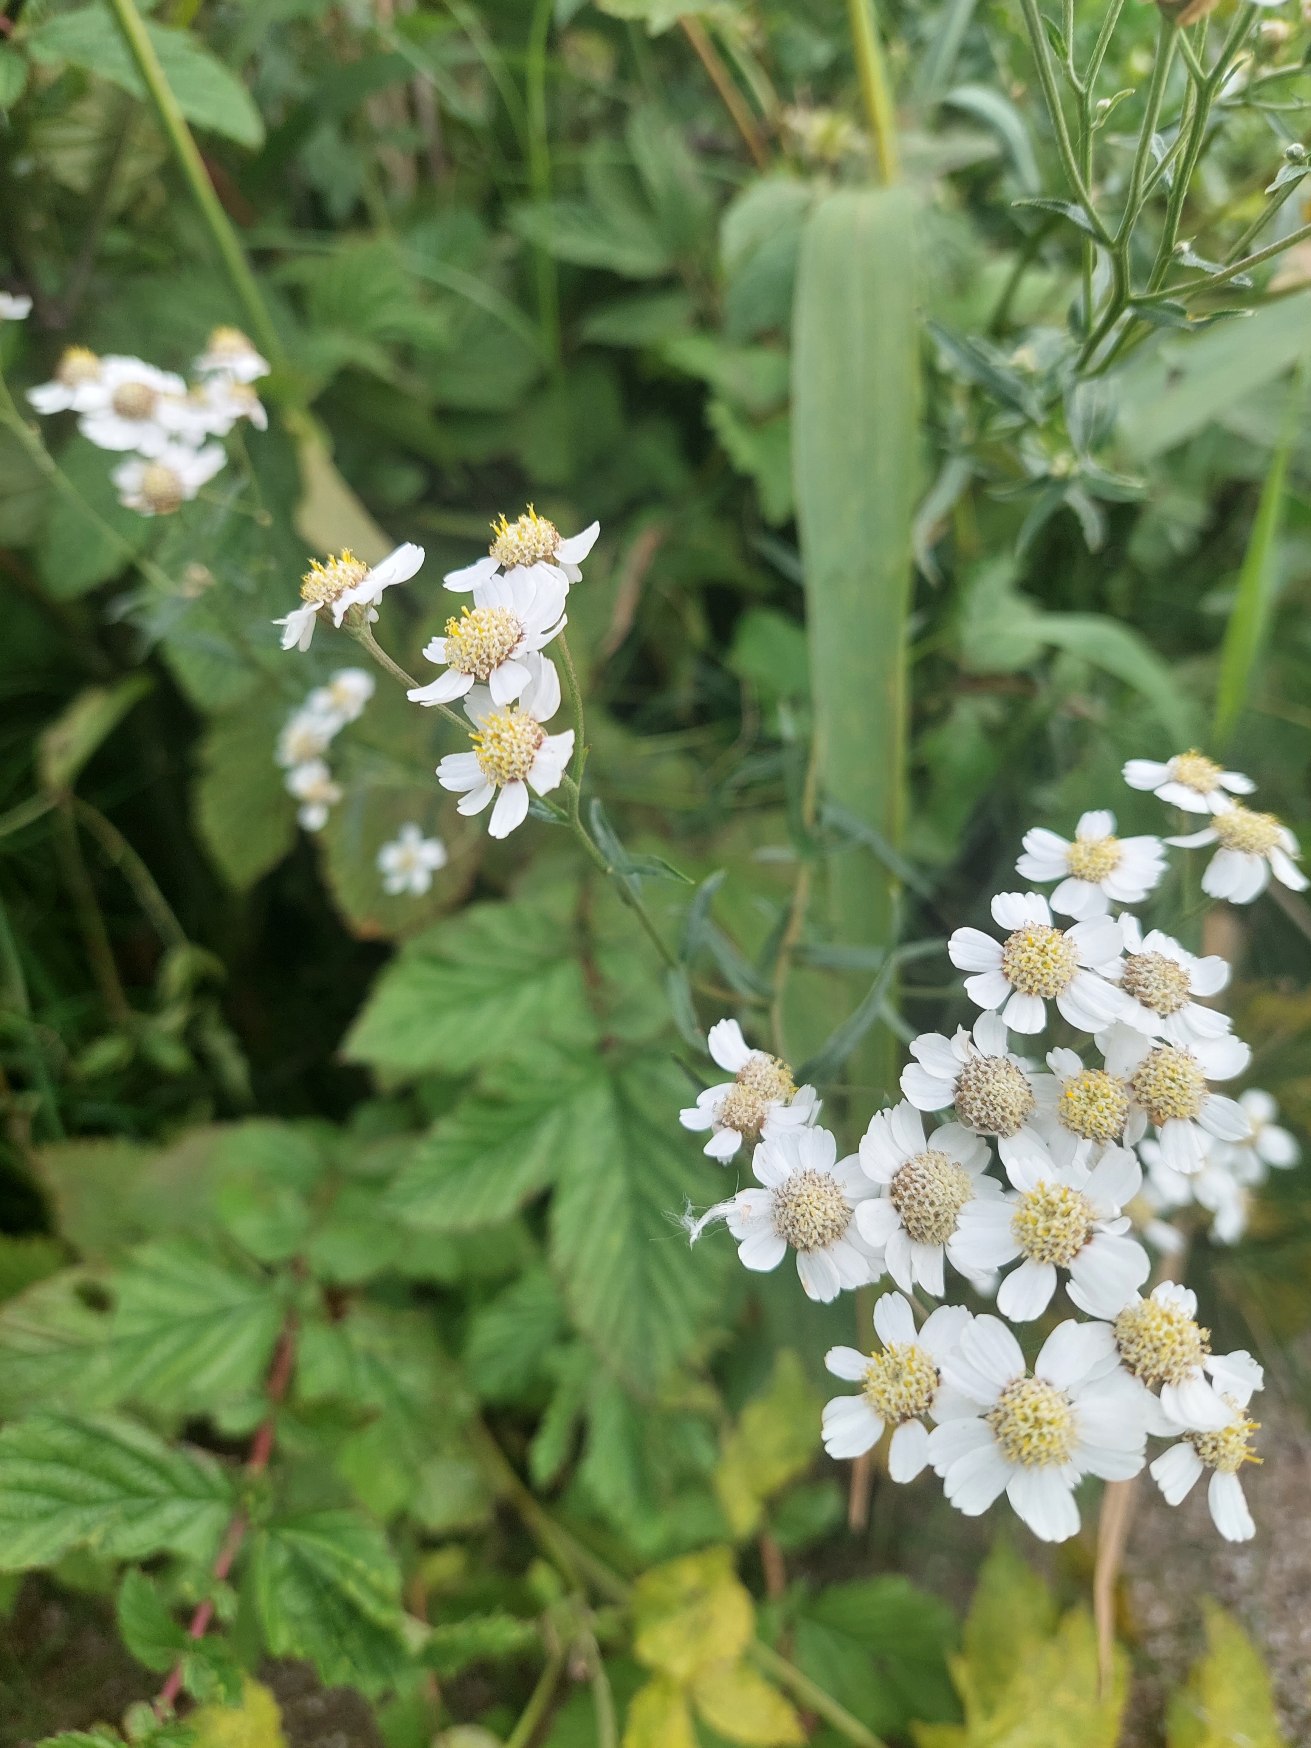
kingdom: Plantae
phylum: Tracheophyta
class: Magnoliopsida
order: Asterales
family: Asteraceae
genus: Achillea
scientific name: Achillea ptarmica
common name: Nyse-røllike
